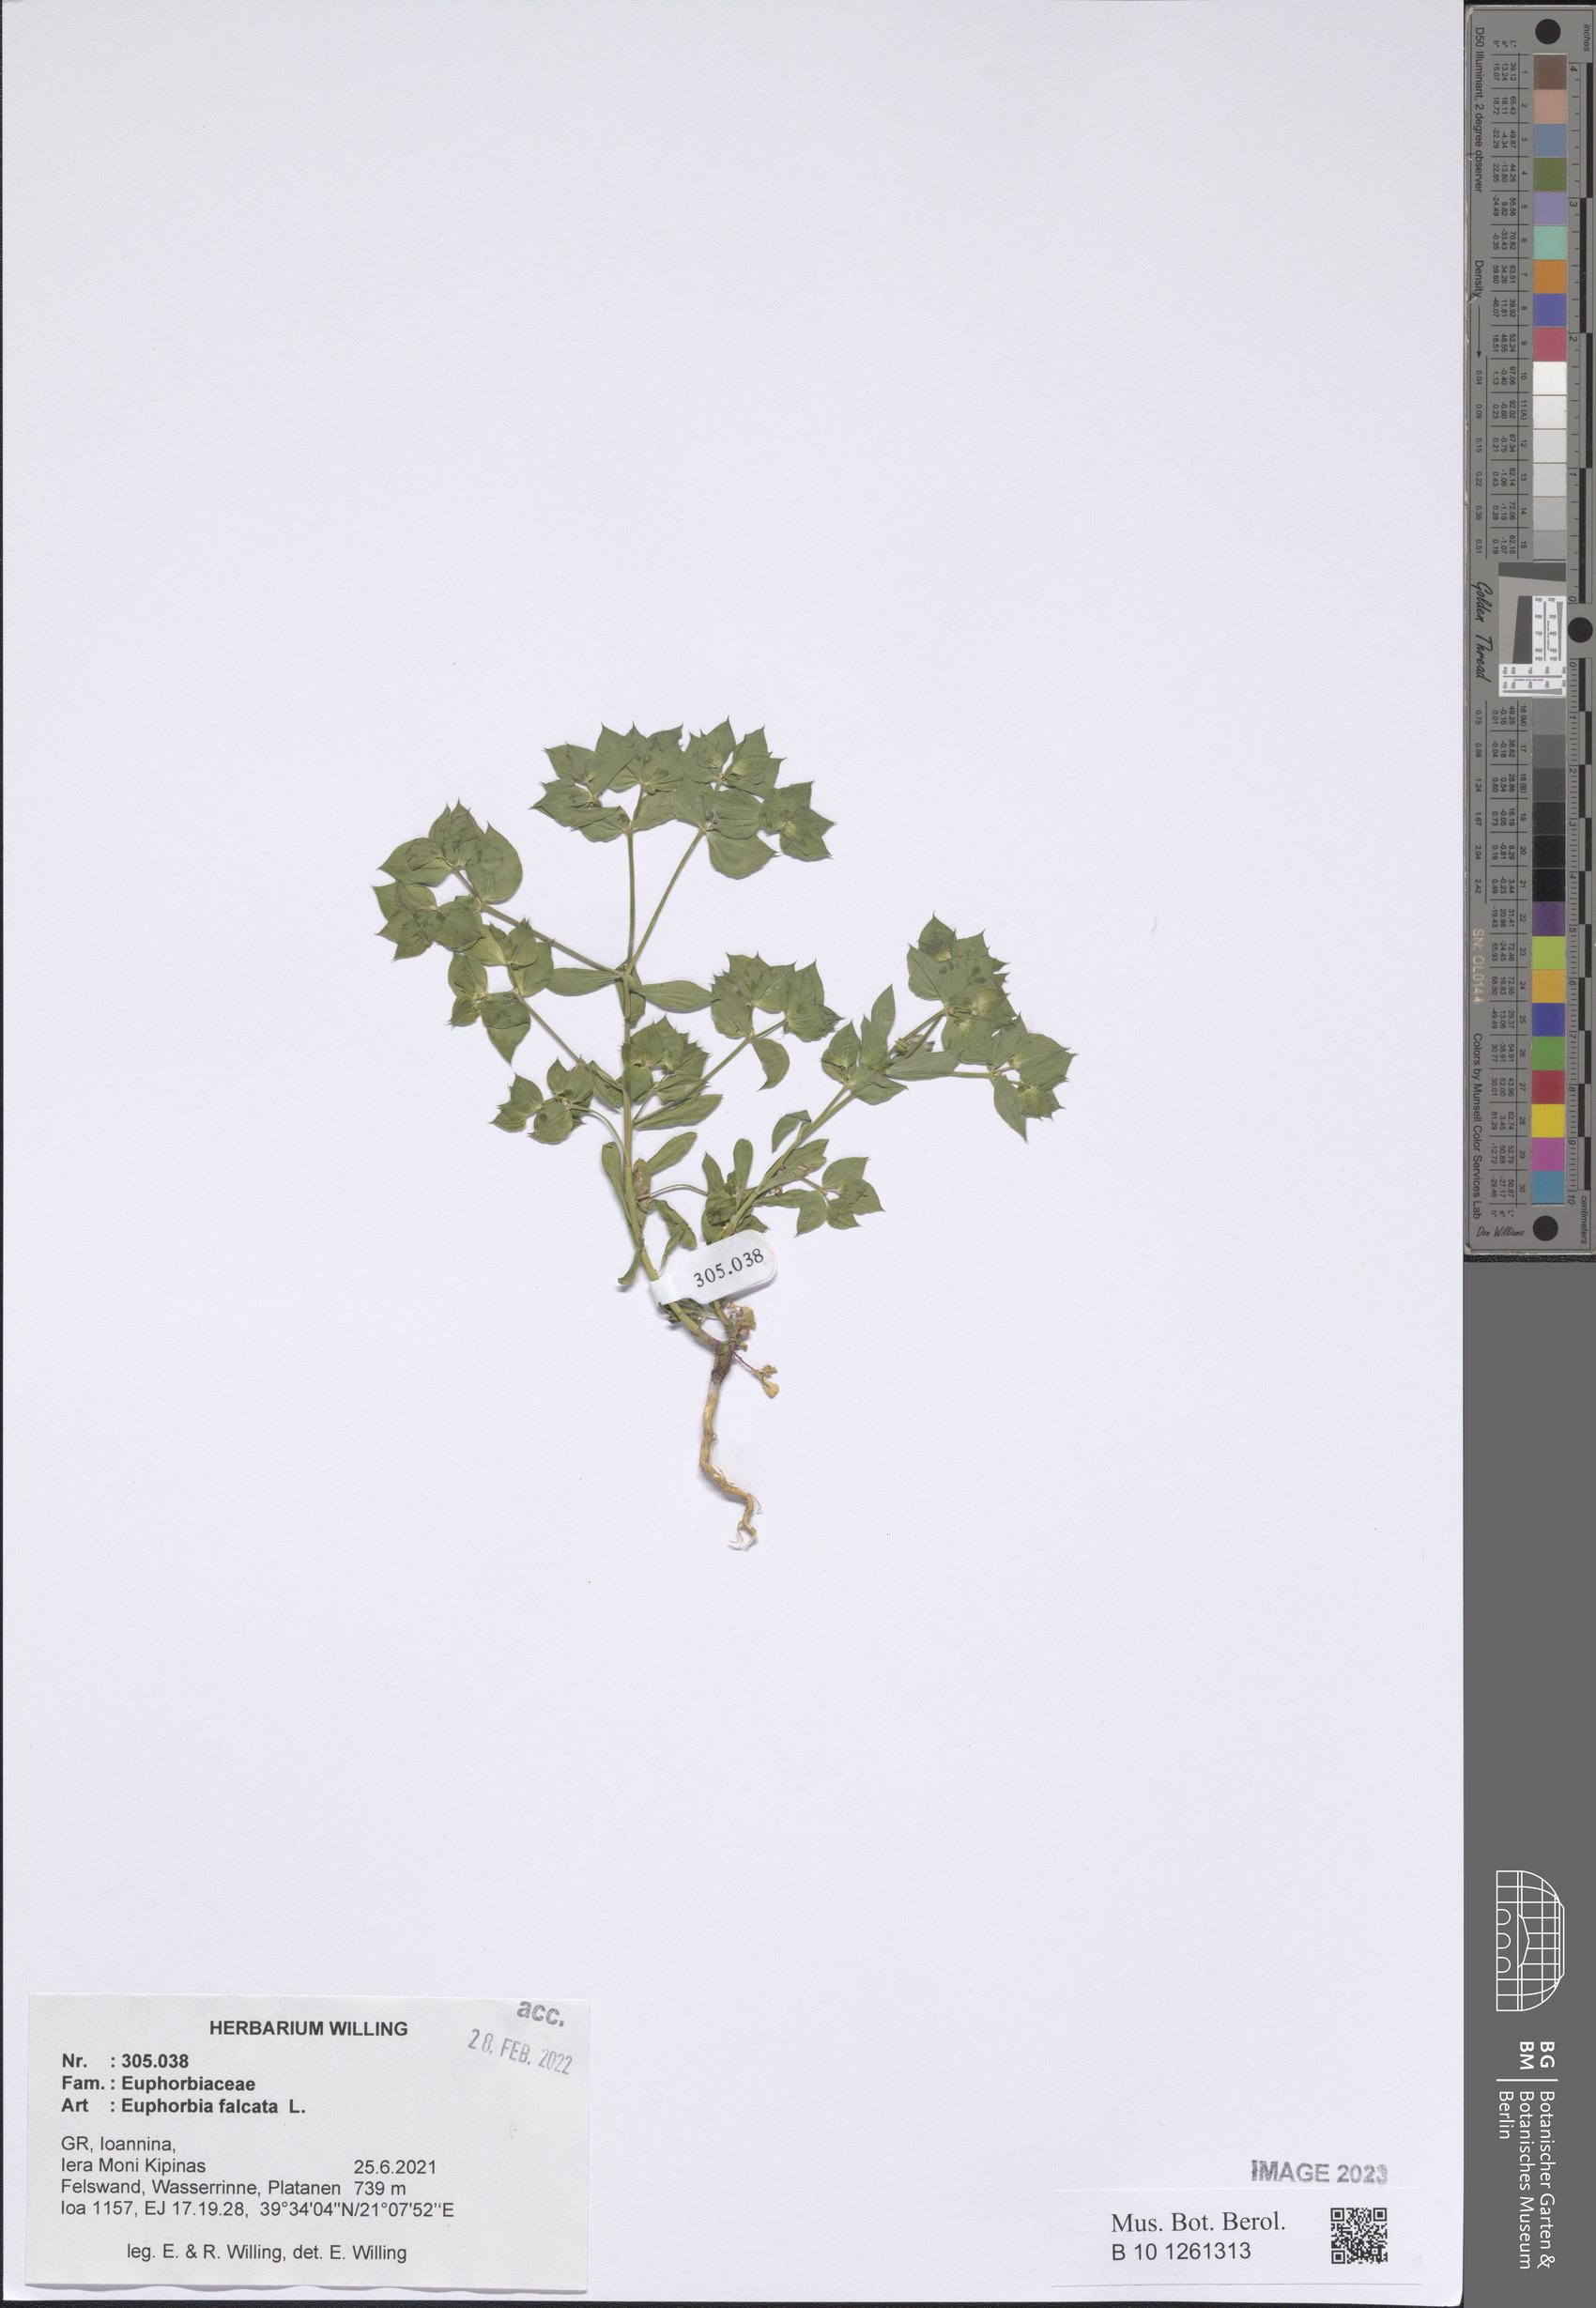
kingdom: Plantae
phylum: Tracheophyta
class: Magnoliopsida
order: Malpighiales
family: Euphorbiaceae
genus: Euphorbia
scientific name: Euphorbia falcata
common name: Sickle spurge
